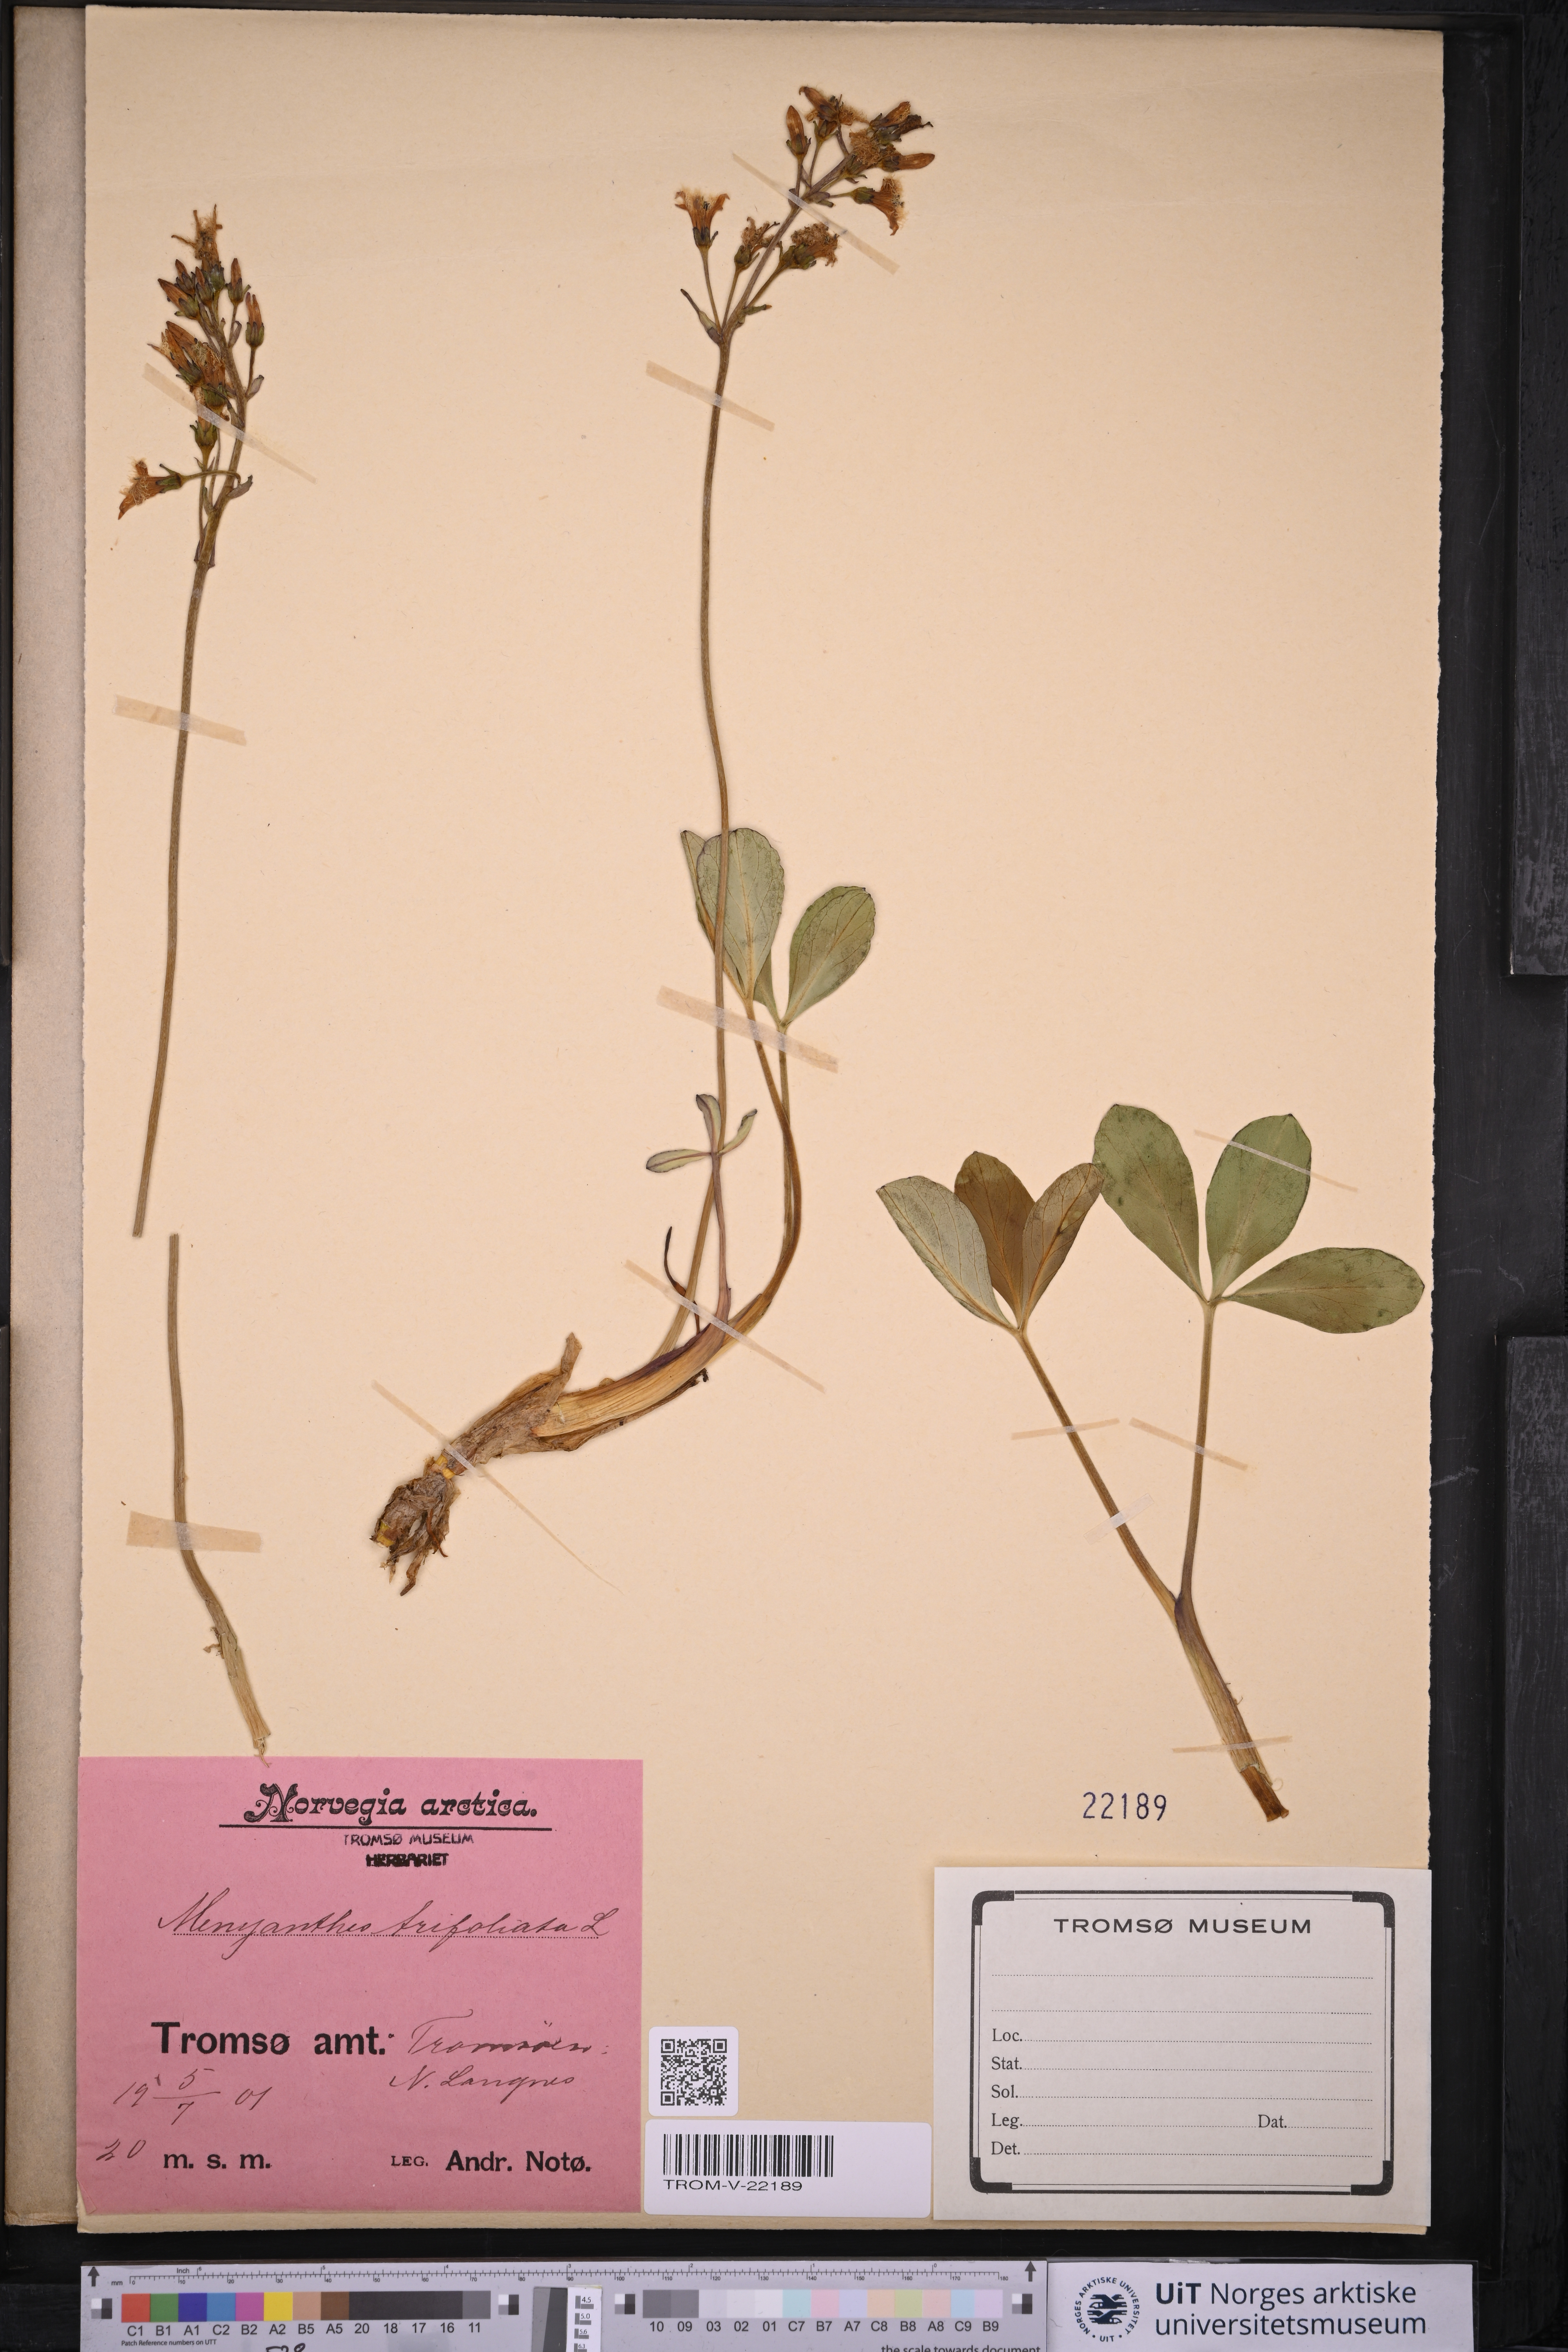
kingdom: Plantae
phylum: Tracheophyta
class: Magnoliopsida
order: Asterales
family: Menyanthaceae
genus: Menyanthes
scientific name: Menyanthes trifoliata
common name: Bogbean
